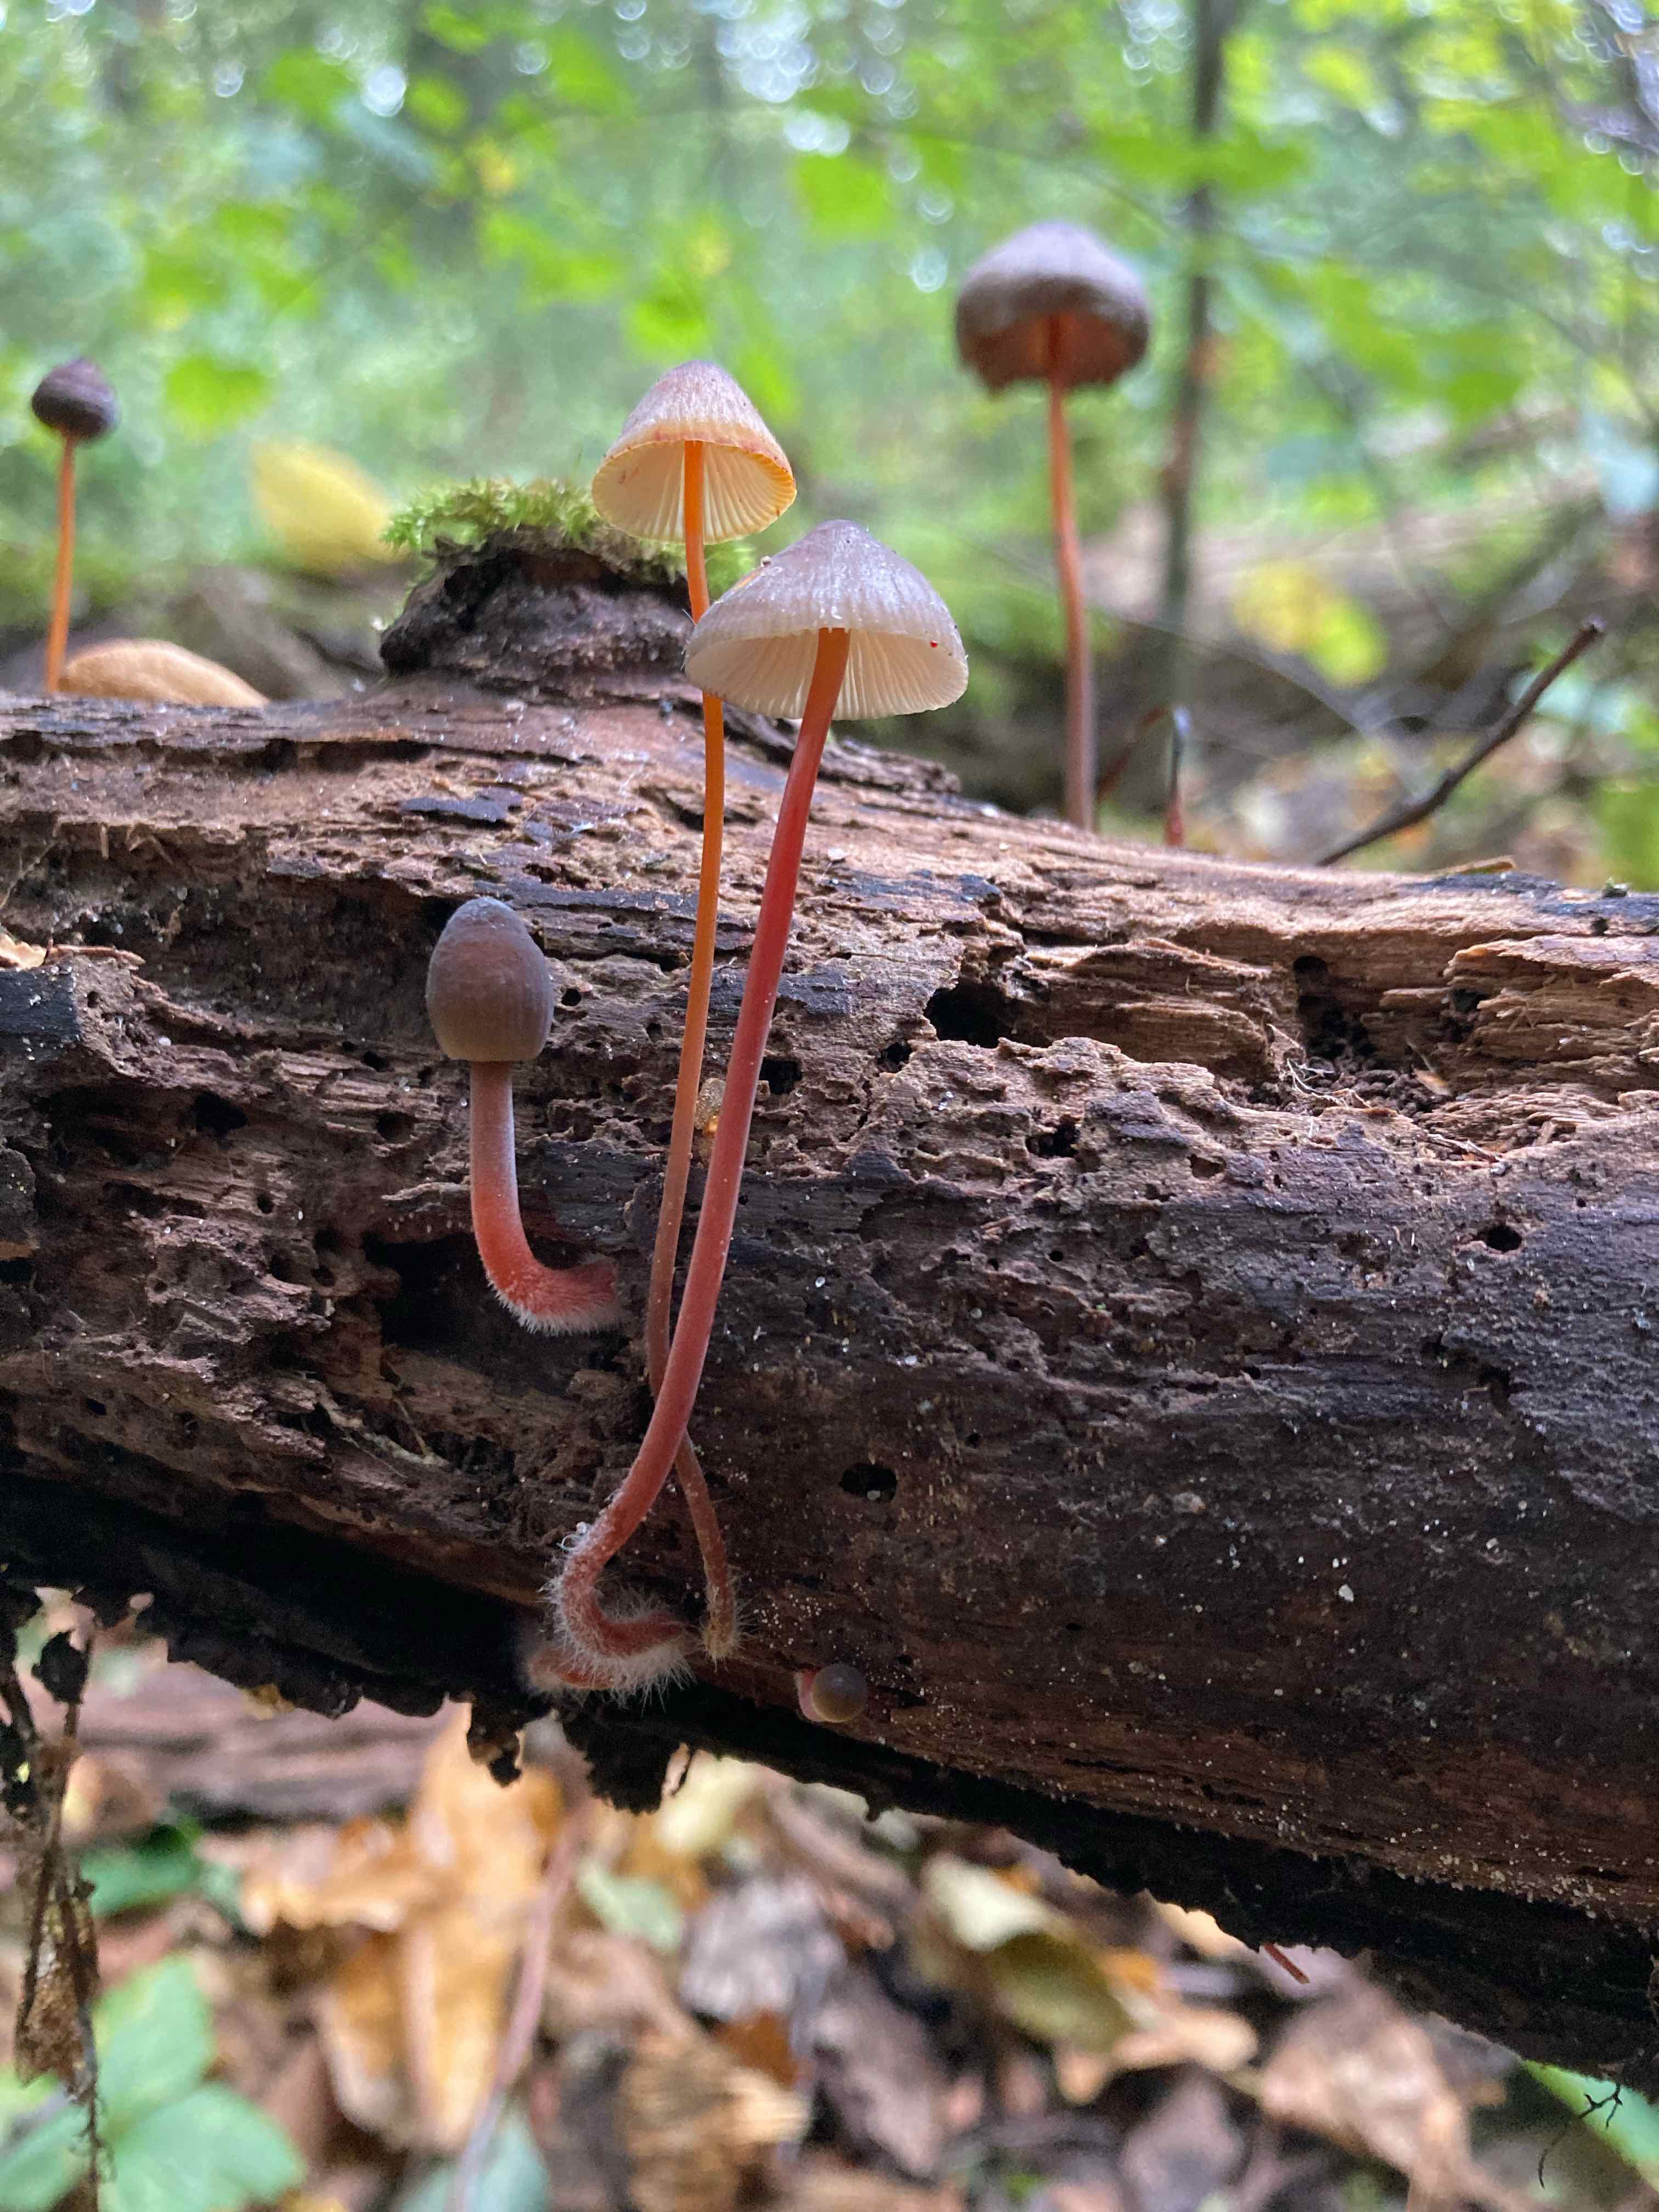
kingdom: Fungi
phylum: Basidiomycota
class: Agaricomycetes
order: Agaricales
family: Mycenaceae
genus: Mycena
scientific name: Mycena crocata
